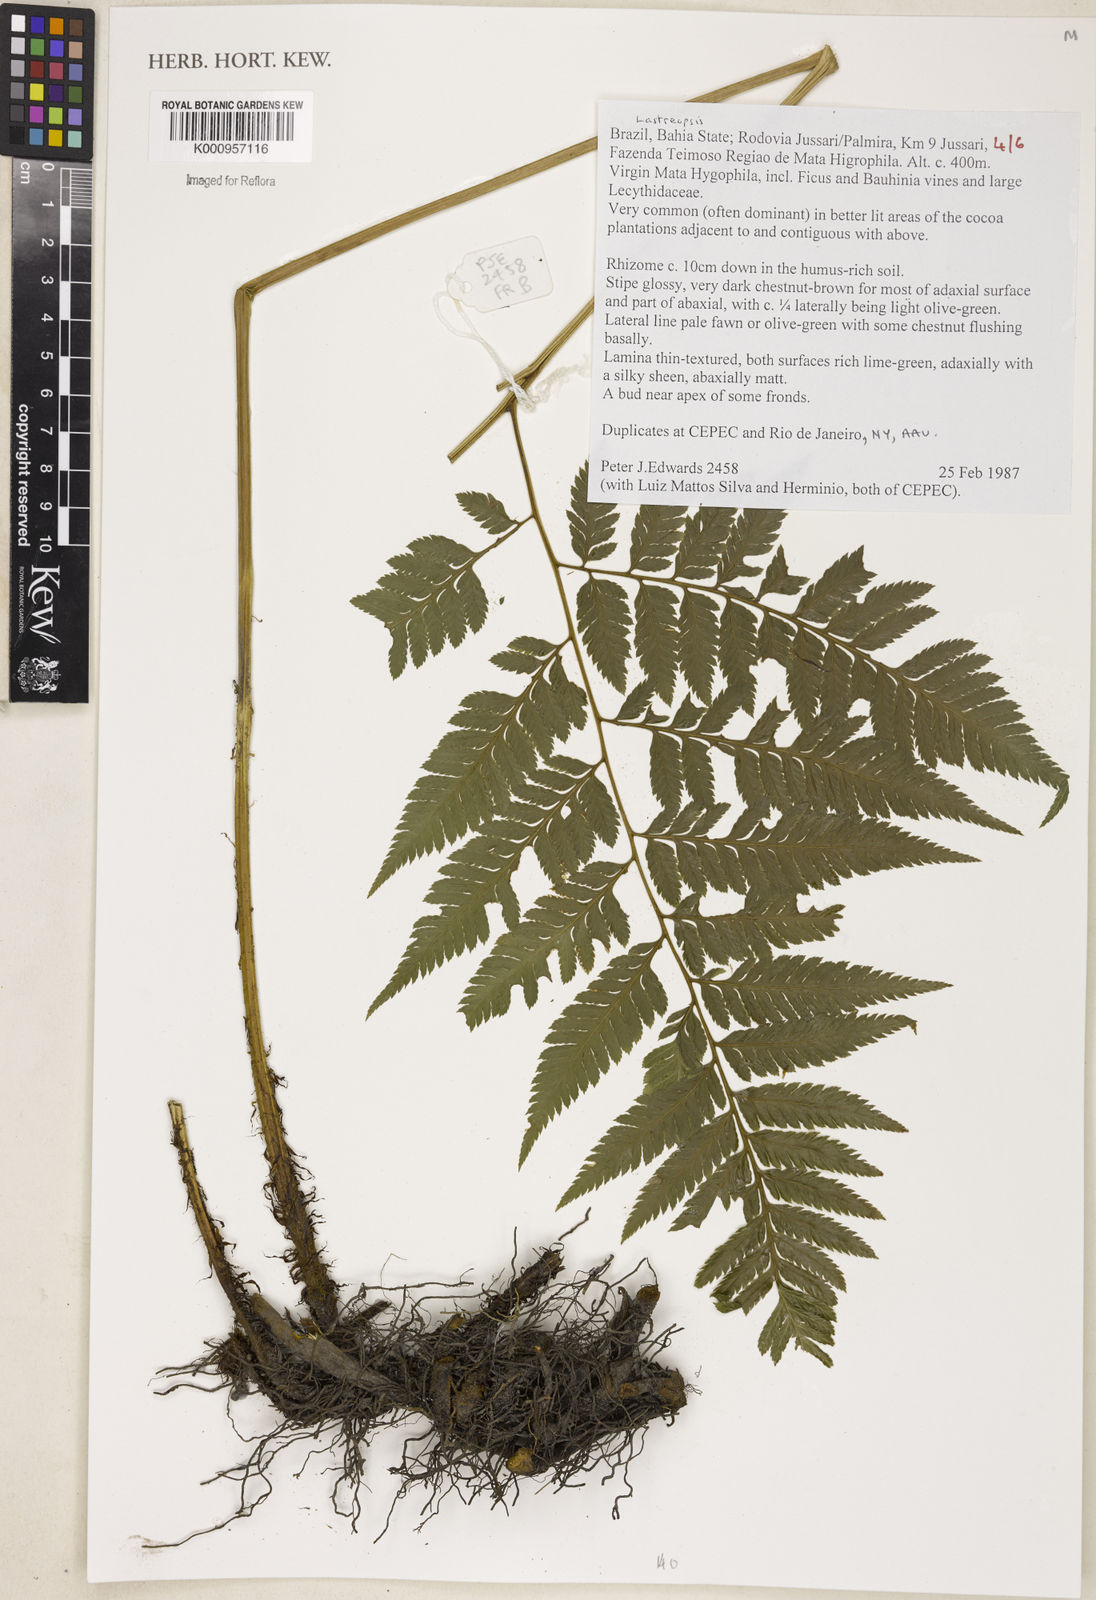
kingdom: Plantae
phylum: Tracheophyta
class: Polypodiopsida
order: Polypodiales
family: Dryopteridaceae
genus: Lastreopsis
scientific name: Lastreopsis
